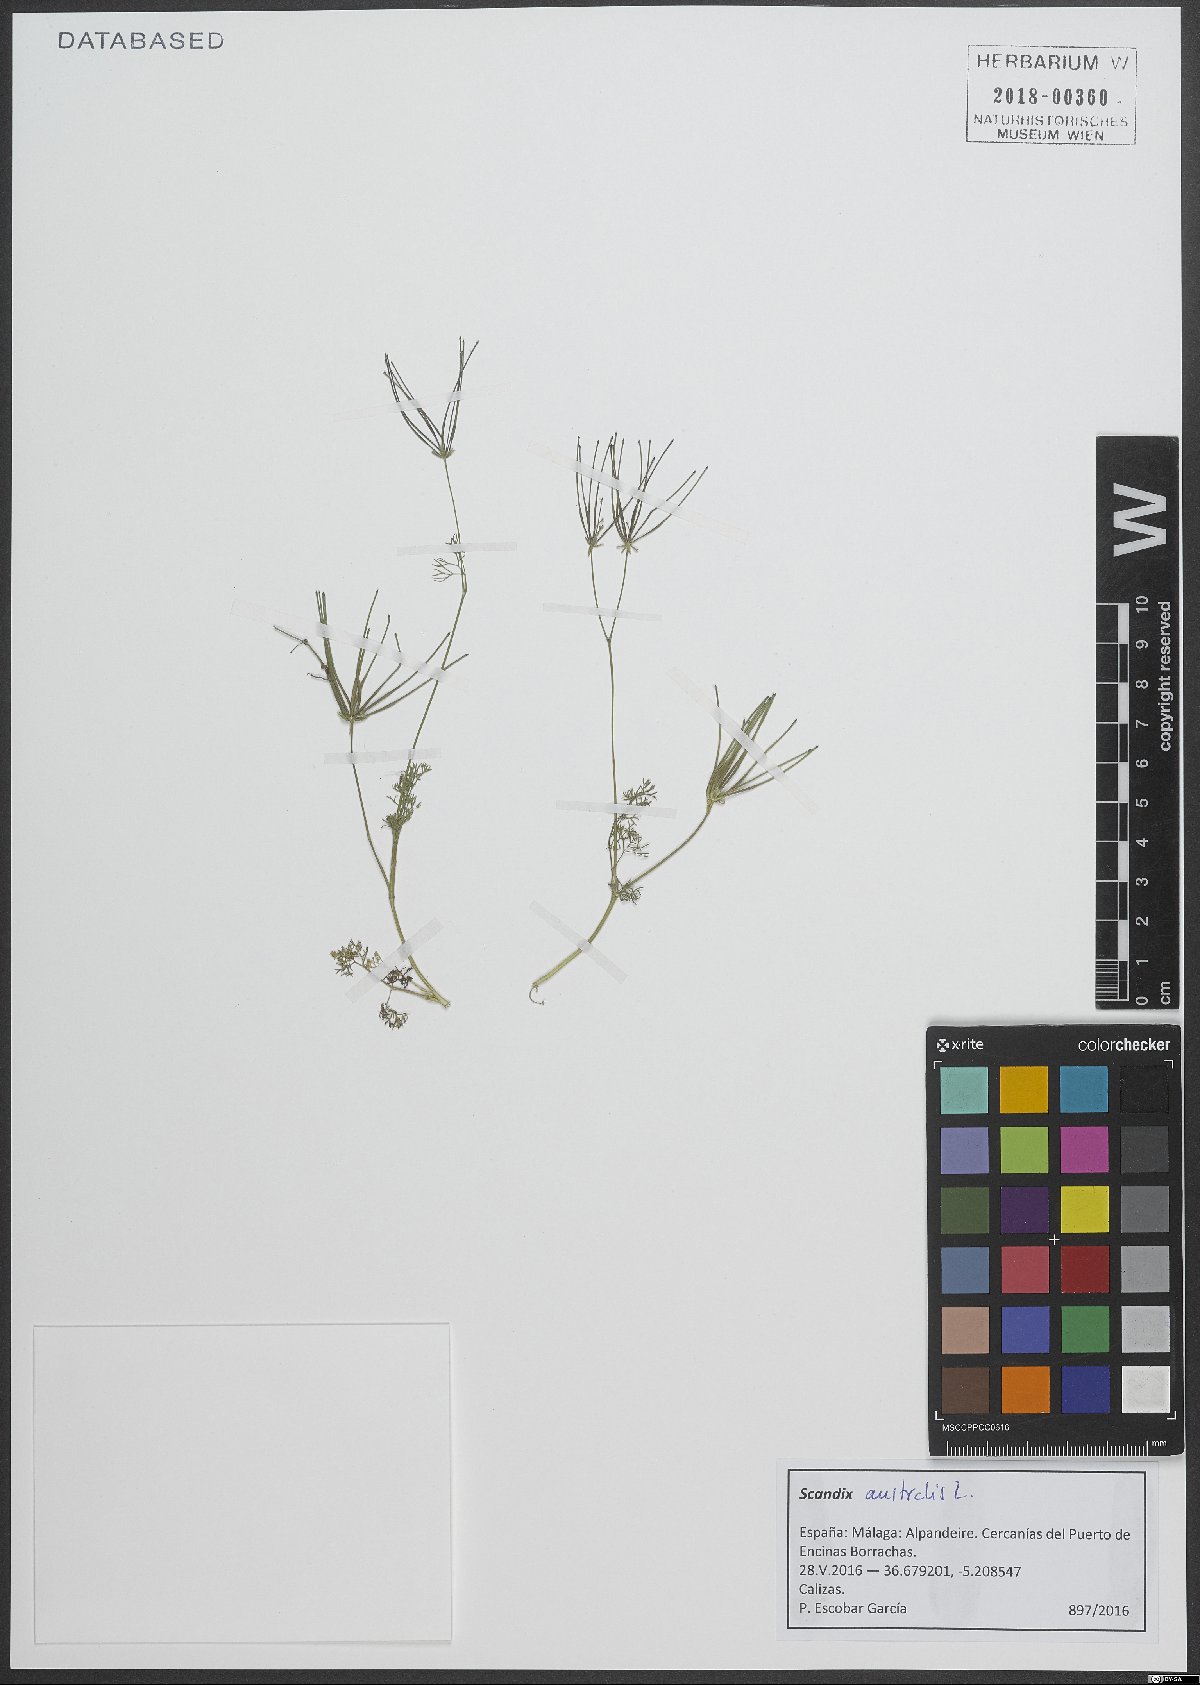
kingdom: Plantae
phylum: Tracheophyta
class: Magnoliopsida
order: Apiales
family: Apiaceae
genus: Scandix
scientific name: Scandix australis
